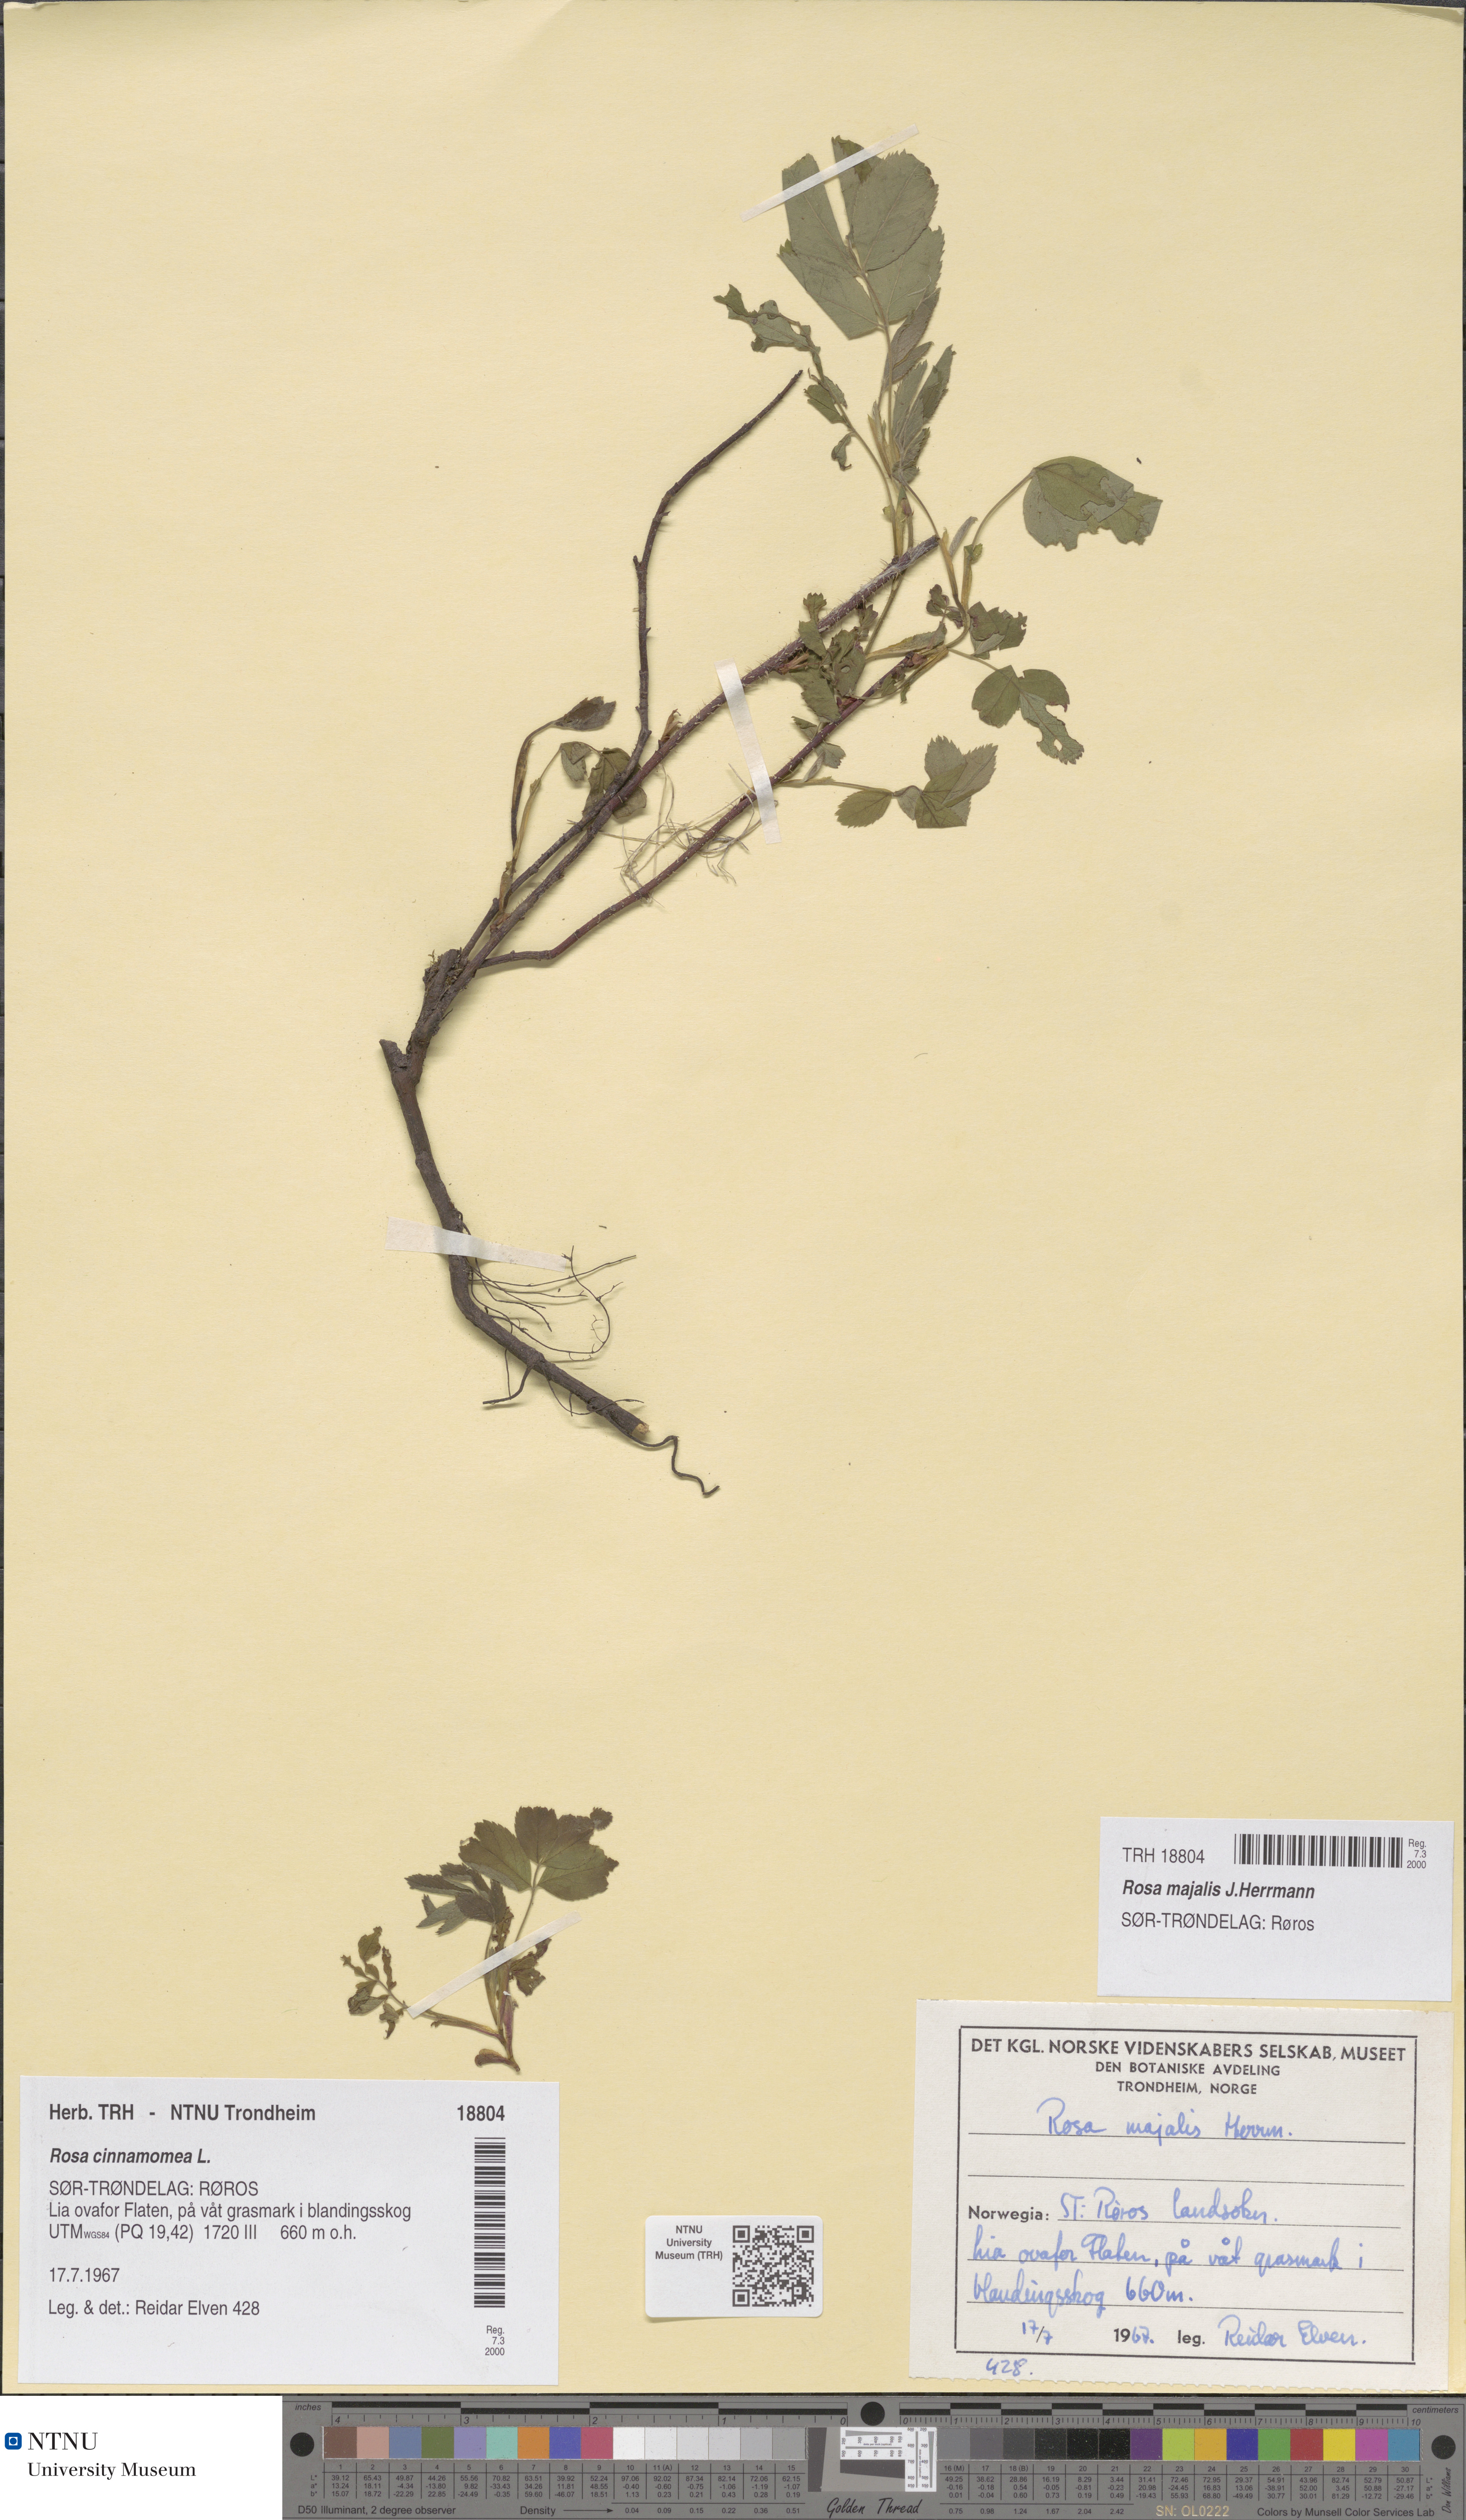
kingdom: Plantae
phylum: Tracheophyta
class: Magnoliopsida
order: Rosales
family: Rosaceae
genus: Rosa
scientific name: Rosa pendulina
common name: Alpine rose
